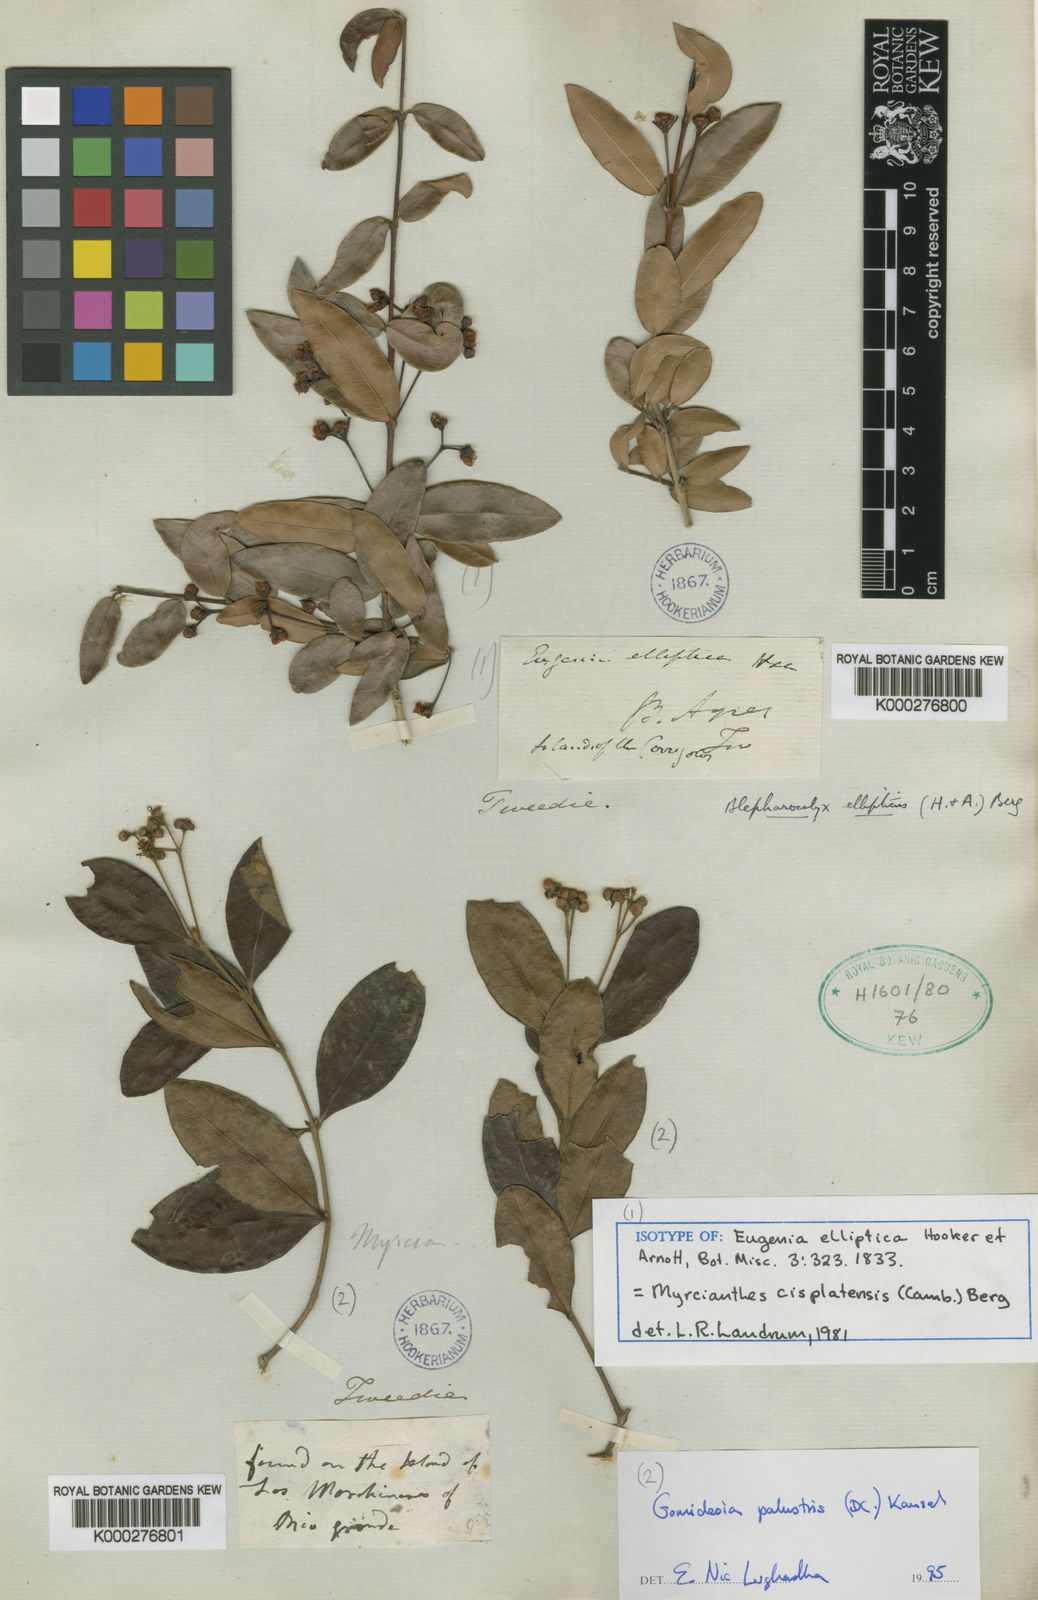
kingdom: Plantae
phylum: Tracheophyta
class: Magnoliopsida
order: Myrtales
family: Myrtaceae
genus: Myrcia
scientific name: Myrcia palustris
